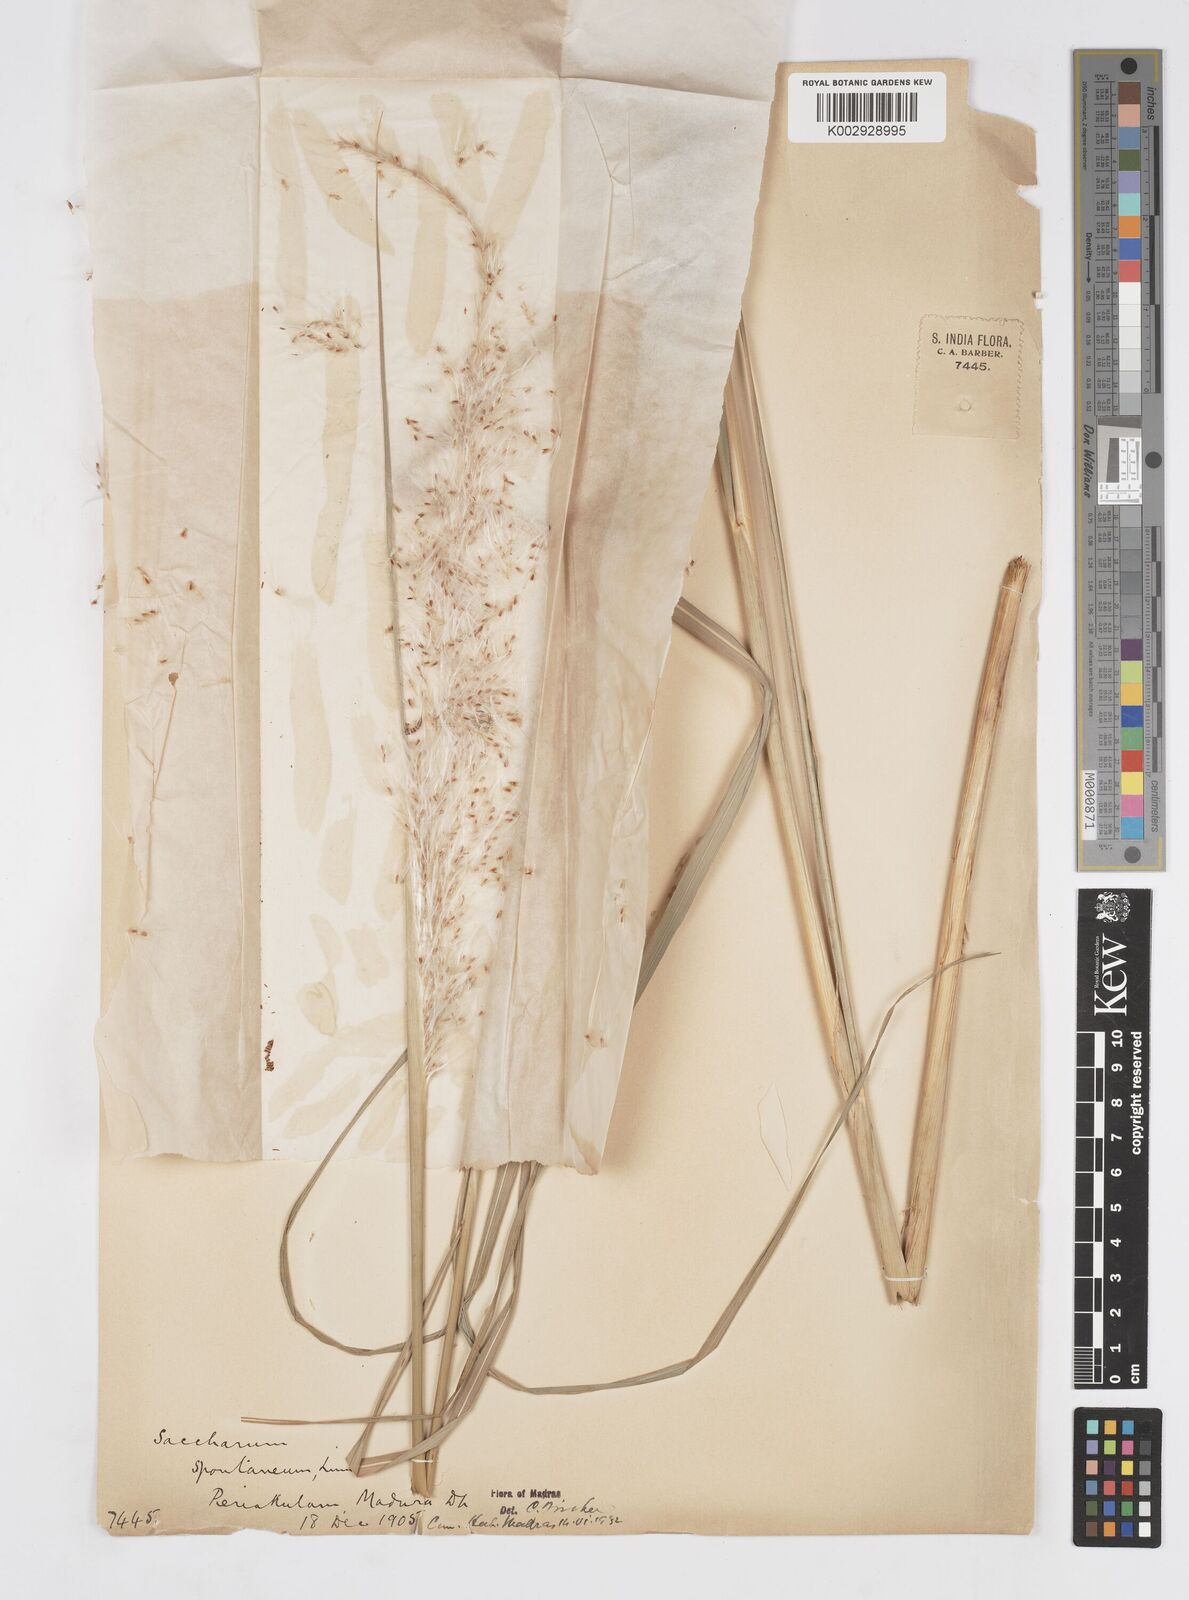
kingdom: Plantae
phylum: Tracheophyta
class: Liliopsida
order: Poales
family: Poaceae
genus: Saccharum
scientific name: Saccharum spontaneum
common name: Wild sugarcane
